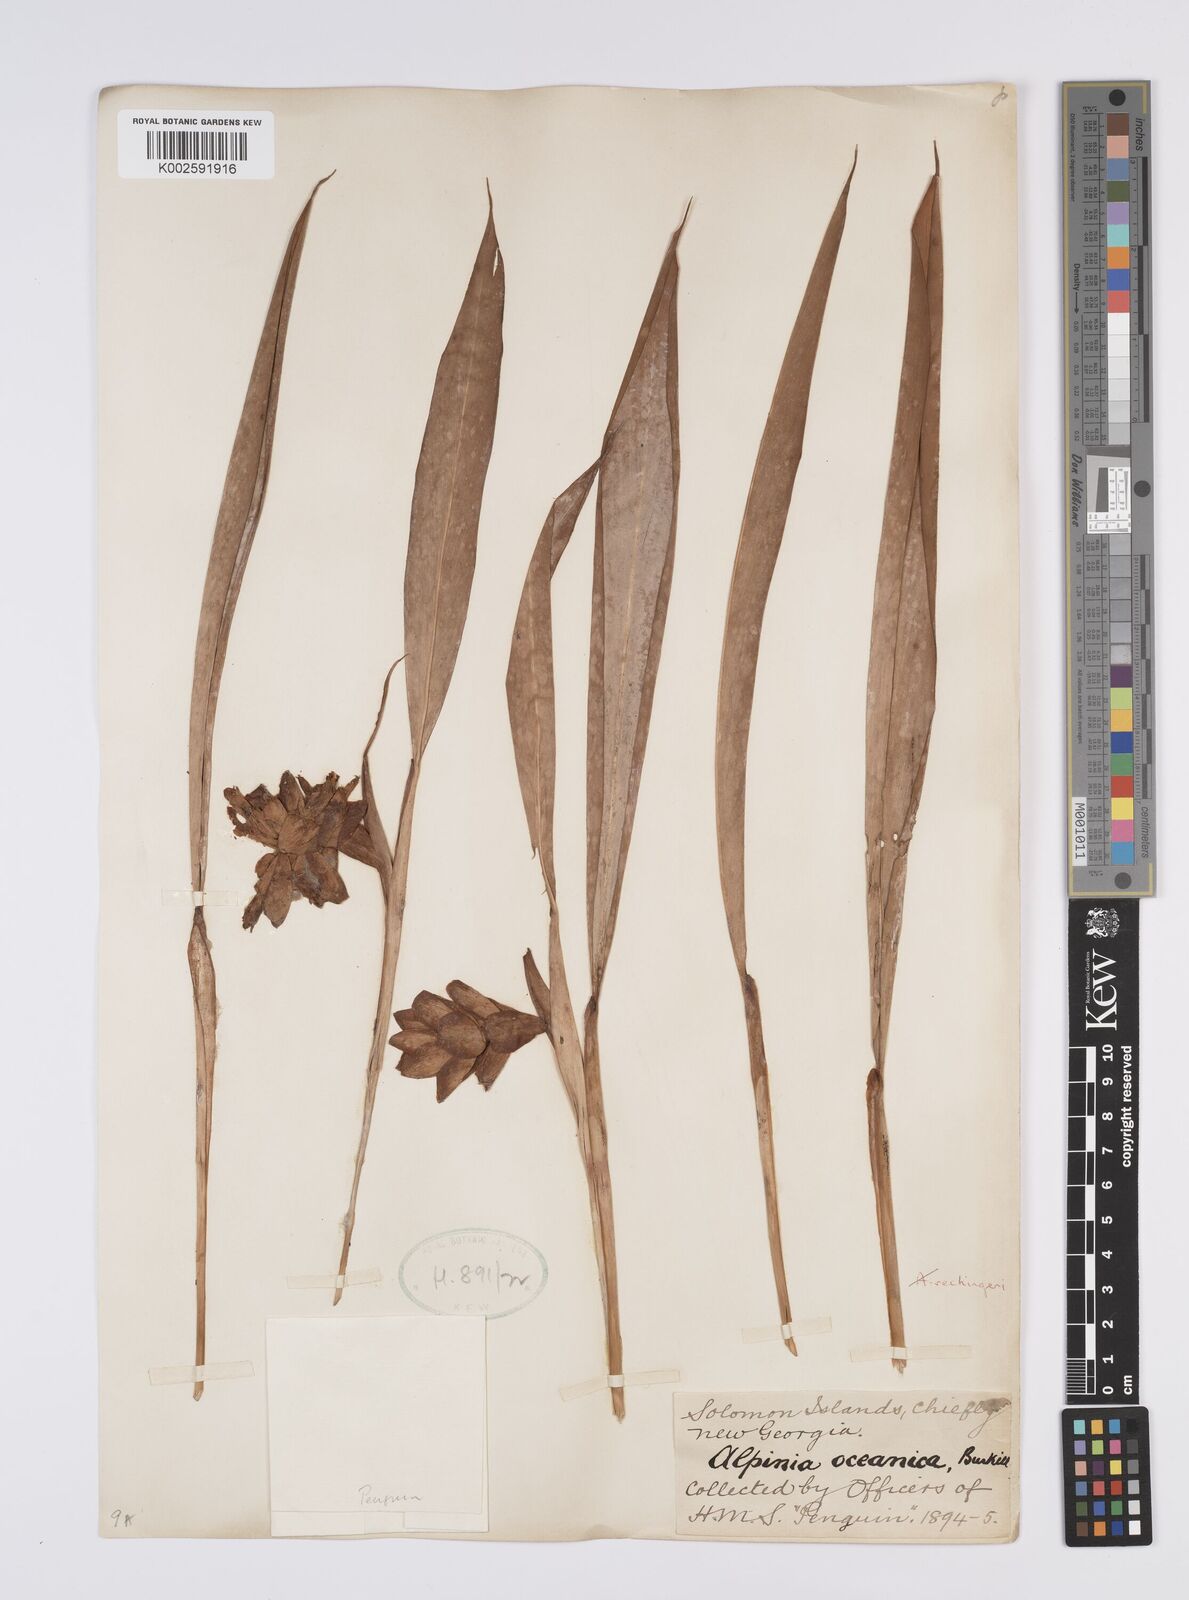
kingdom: Plantae
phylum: Tracheophyta
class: Liliopsida
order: Zingiberales
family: Zingiberaceae
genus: Alpinia
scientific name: Alpinia oceanica
